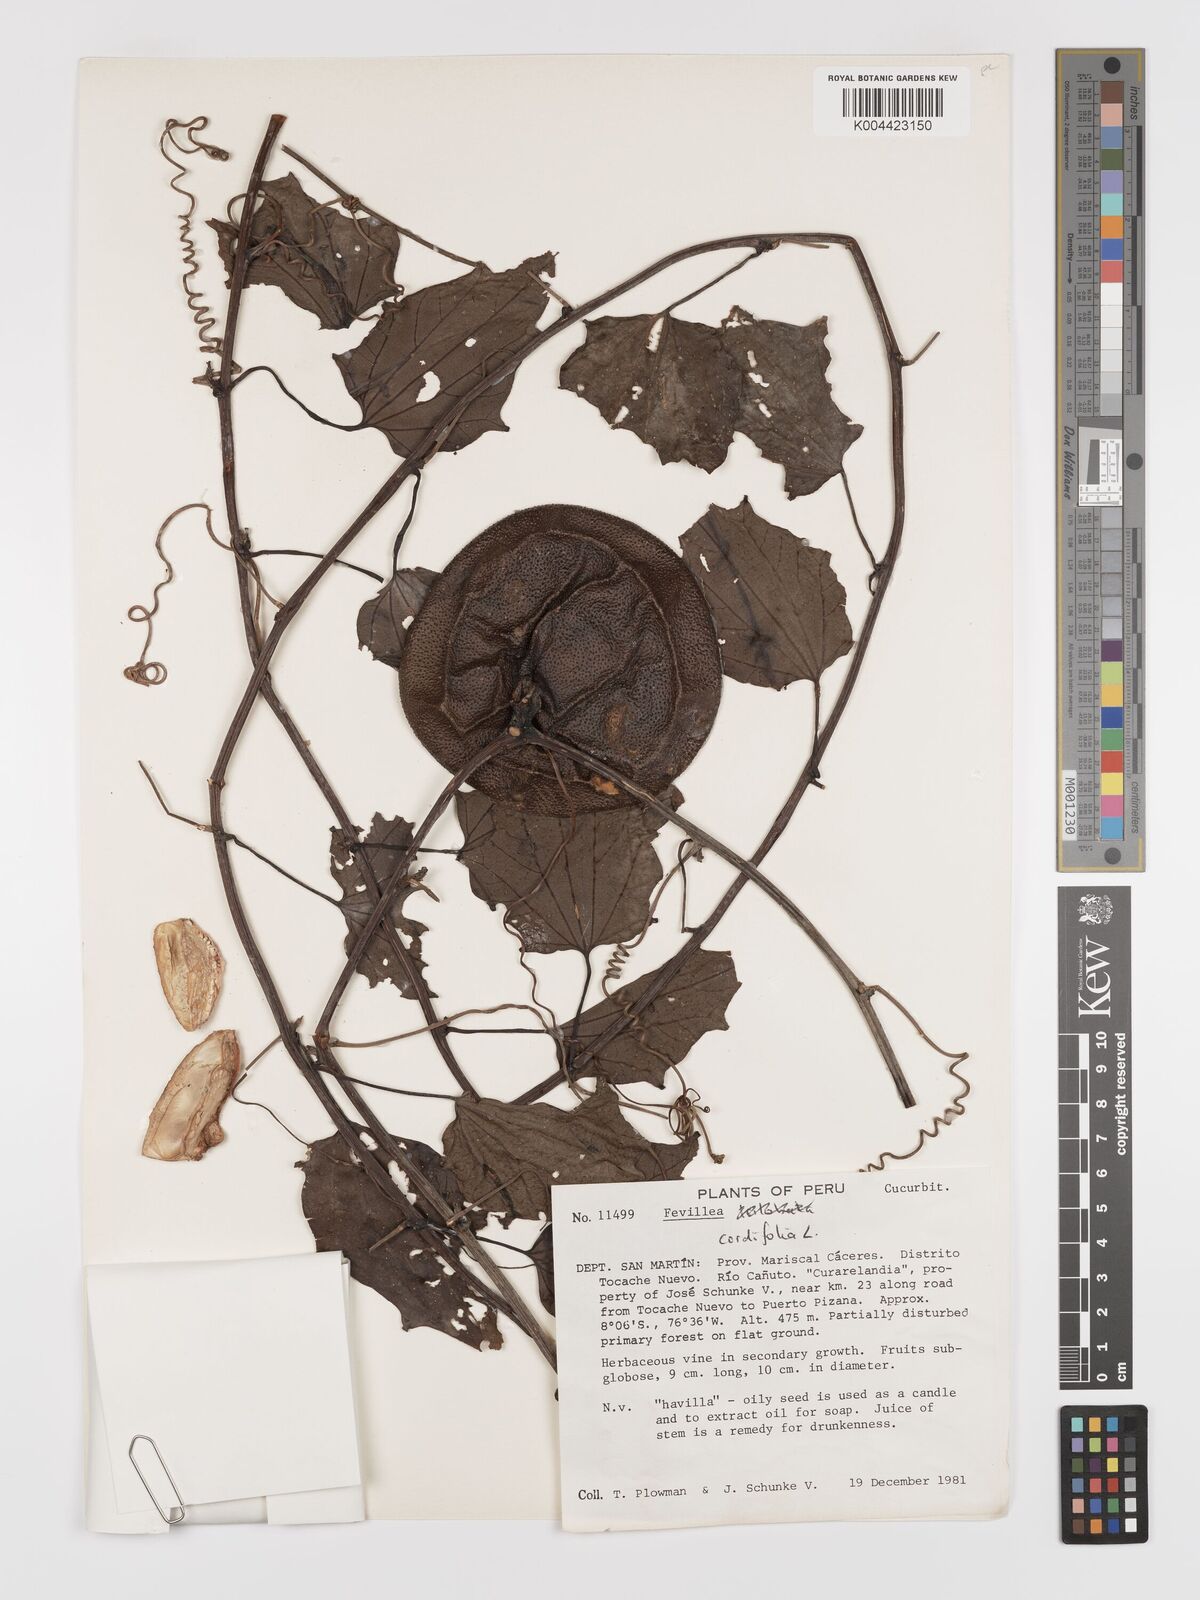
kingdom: Plantae
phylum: Tracheophyta
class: Magnoliopsida
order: Cucurbitales
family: Cucurbitaceae
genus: Fevillea
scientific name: Fevillea
